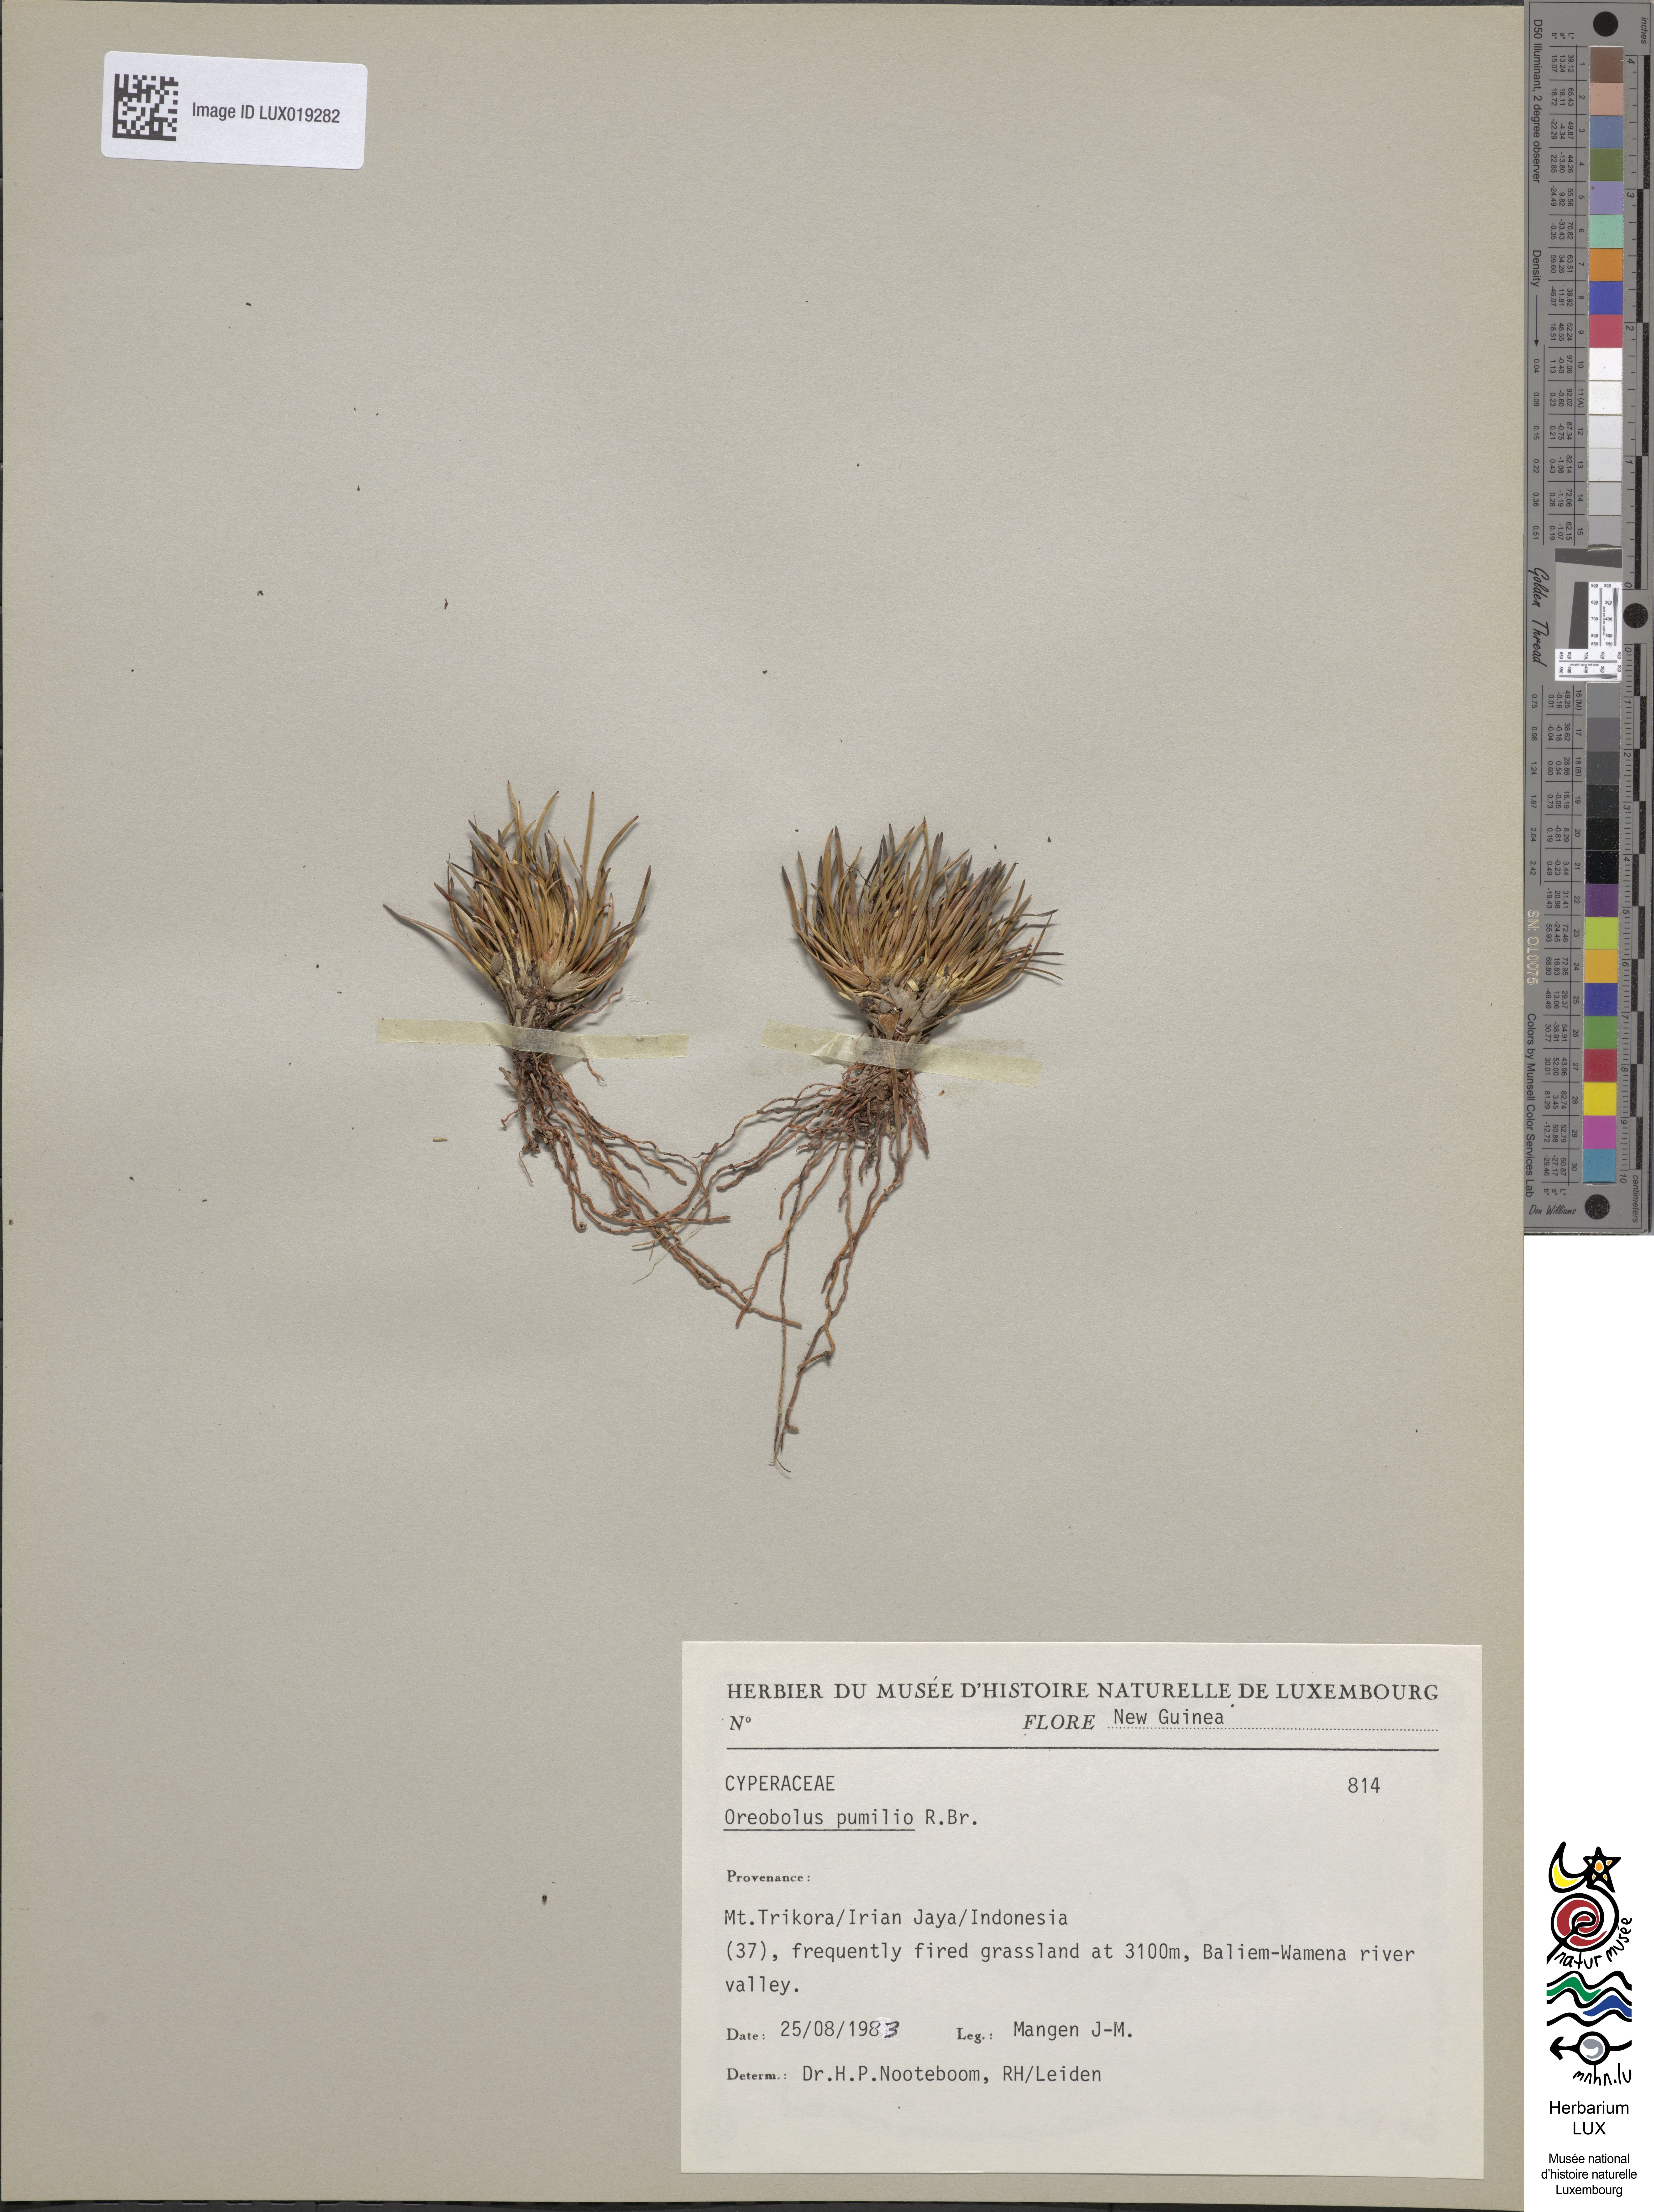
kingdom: Plantae
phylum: Tracheophyta
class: Liliopsida
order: Poales
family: Cyperaceae
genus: Oreobolus
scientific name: Oreobolus pumilio
